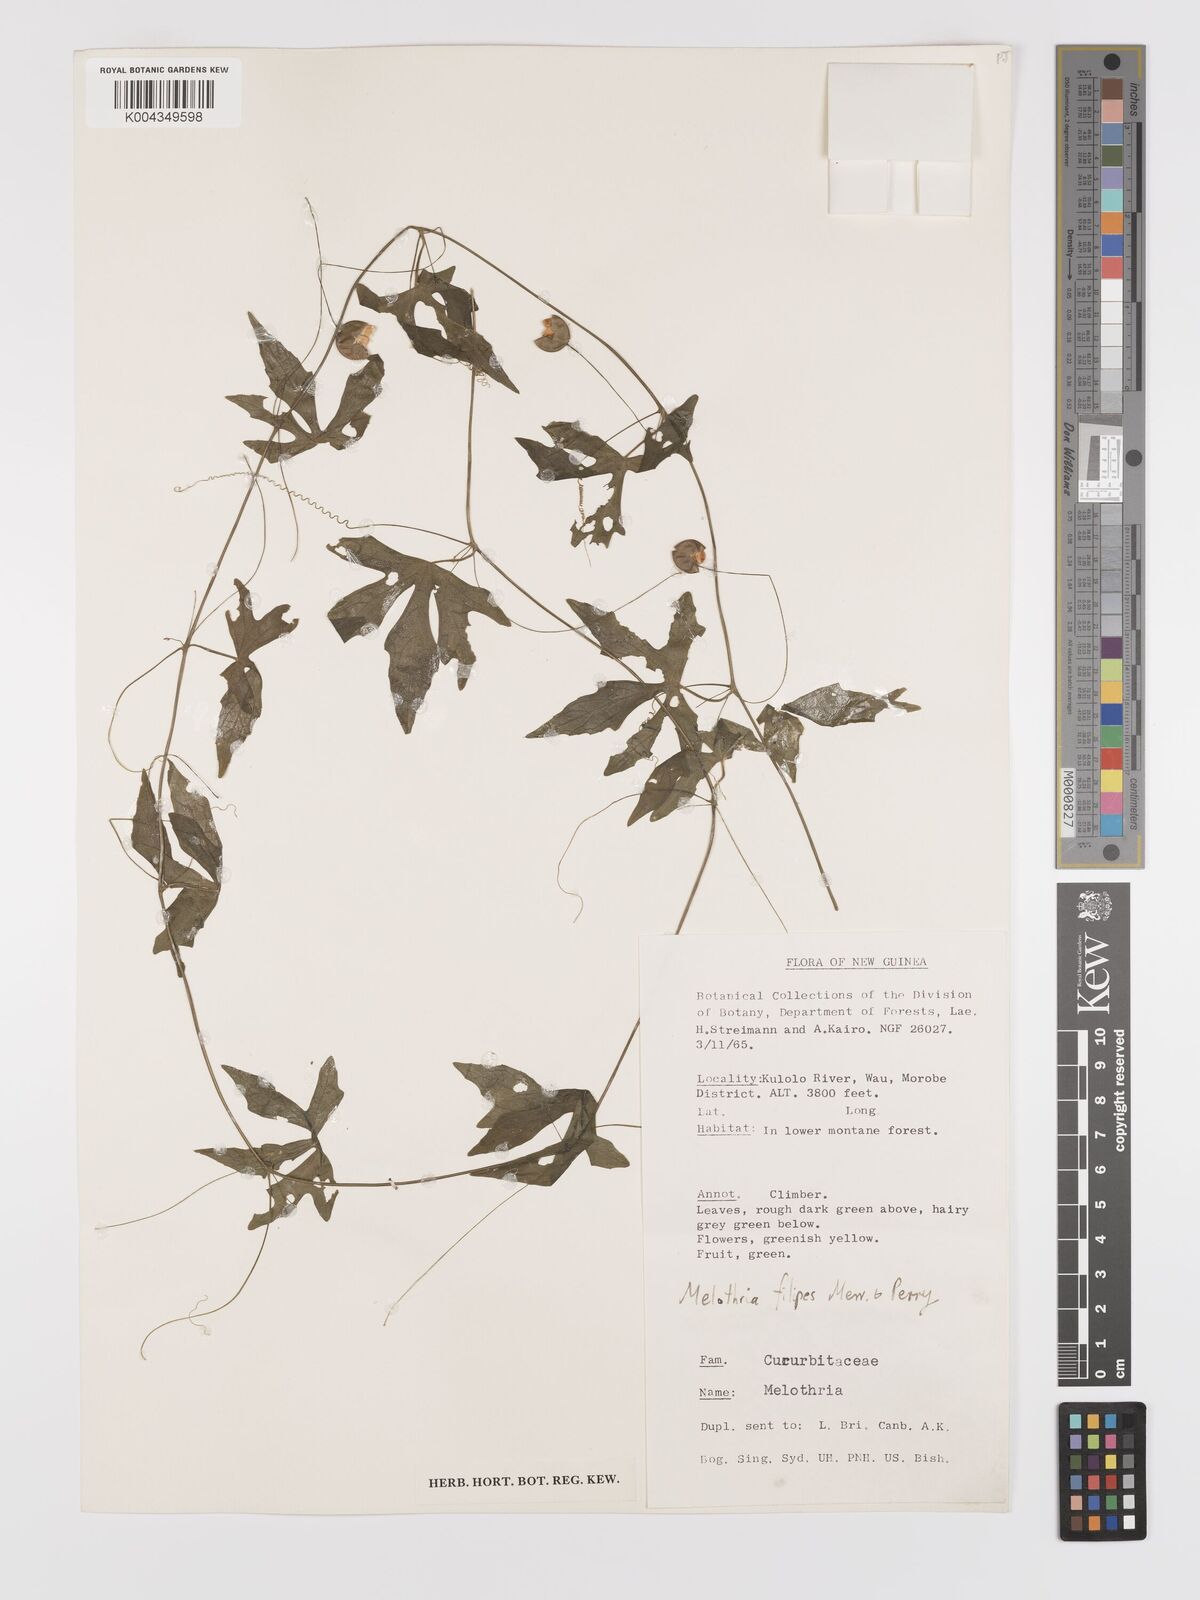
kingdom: Plantae
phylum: Tracheophyta
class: Magnoliopsida
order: Cucurbitales
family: Cucurbitaceae
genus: Zehneria
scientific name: Zehneria filipes
